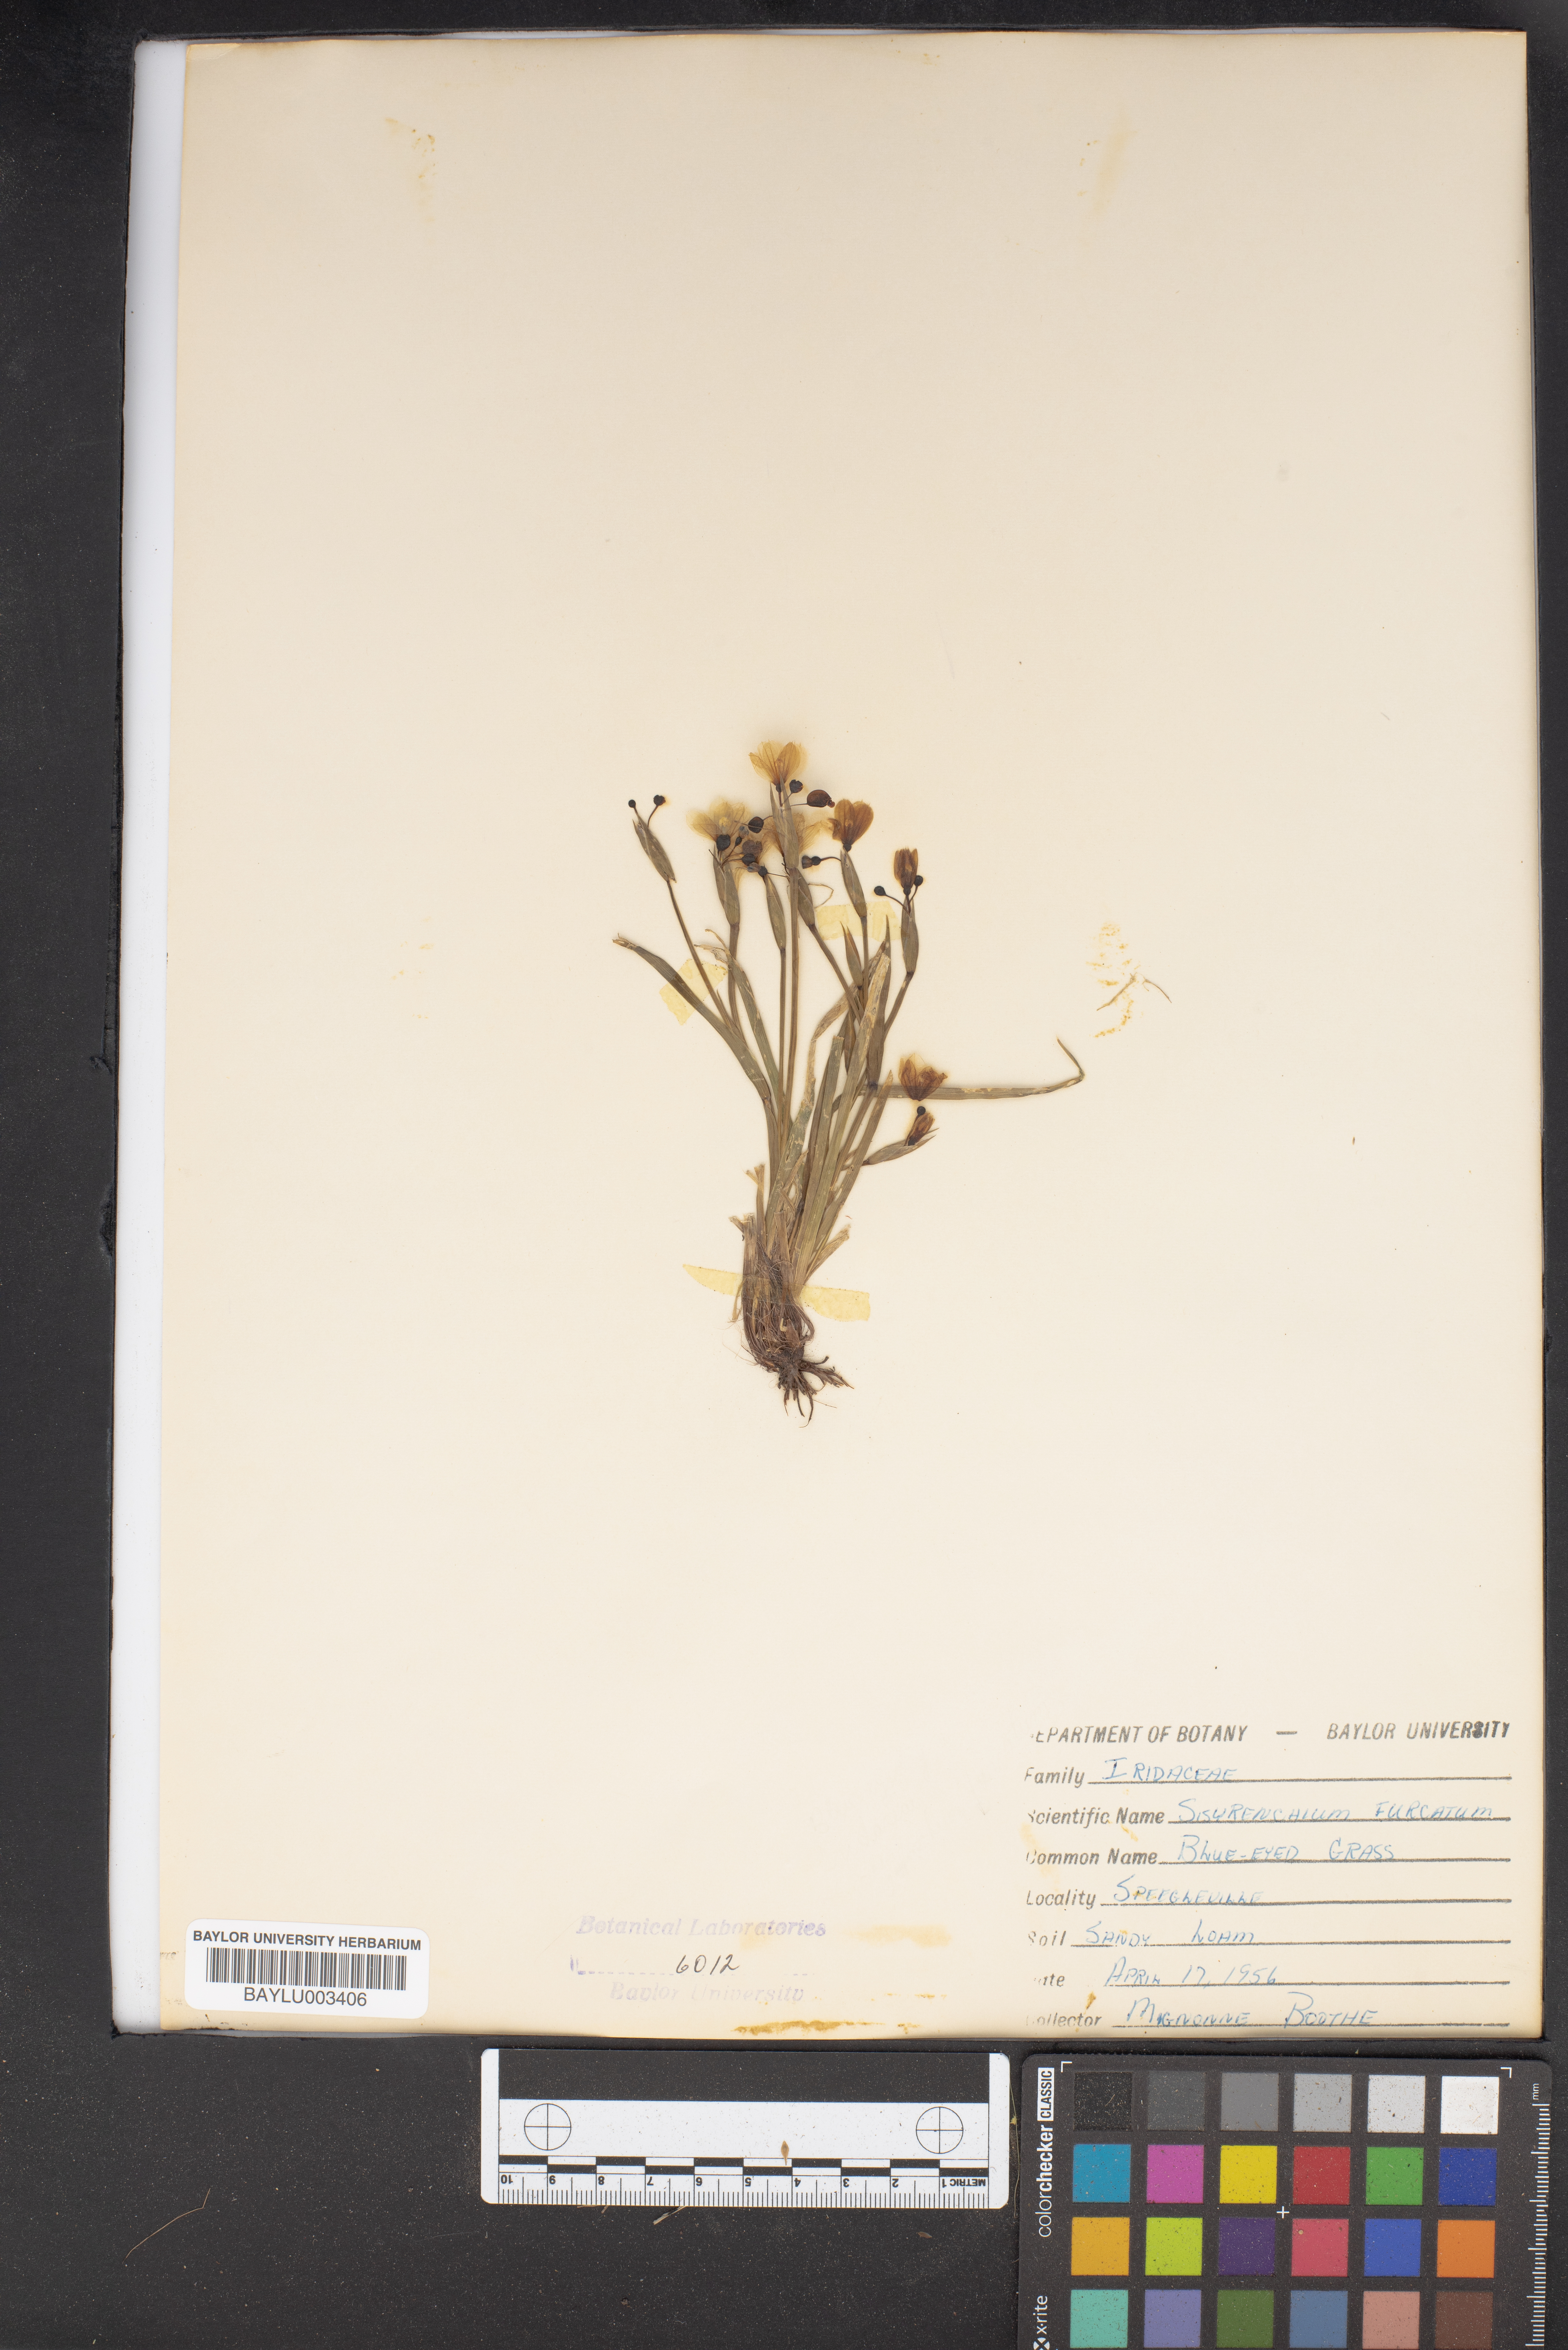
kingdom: Plantae
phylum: Tracheophyta
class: Liliopsida
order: Asparagales
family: Iridaceae
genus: Sisyrinchium
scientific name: Sisyrinchium fuscatum
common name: Coastal plain blue-eyed-grass
